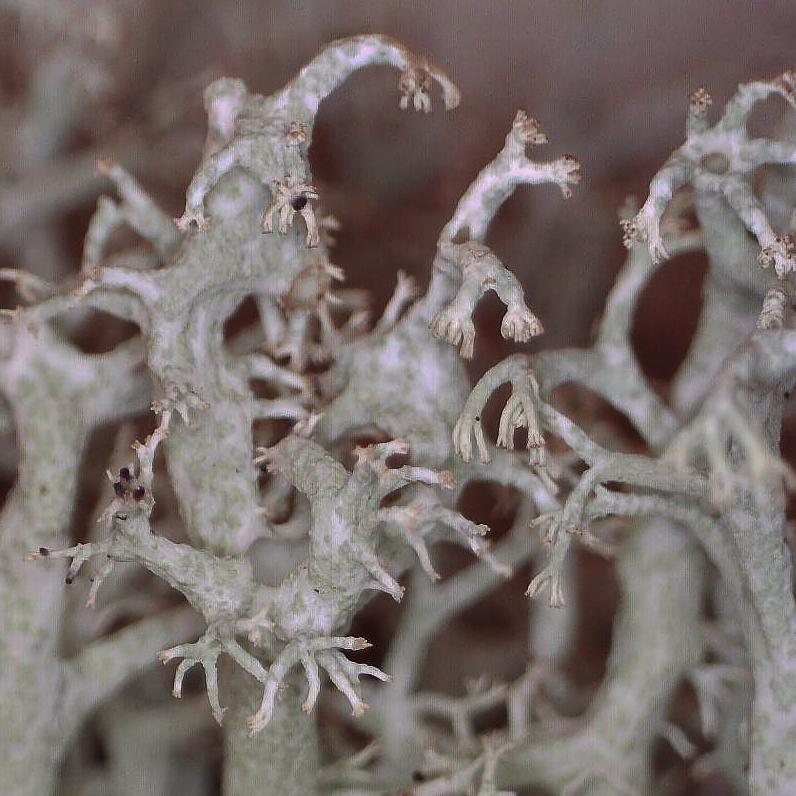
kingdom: Fungi
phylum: Ascomycota
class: Lecanoromycetes
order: Lecanorales
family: Cladoniaceae
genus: Cladonia
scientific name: Cladonia ciliata
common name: spinkel rensdyrlav
